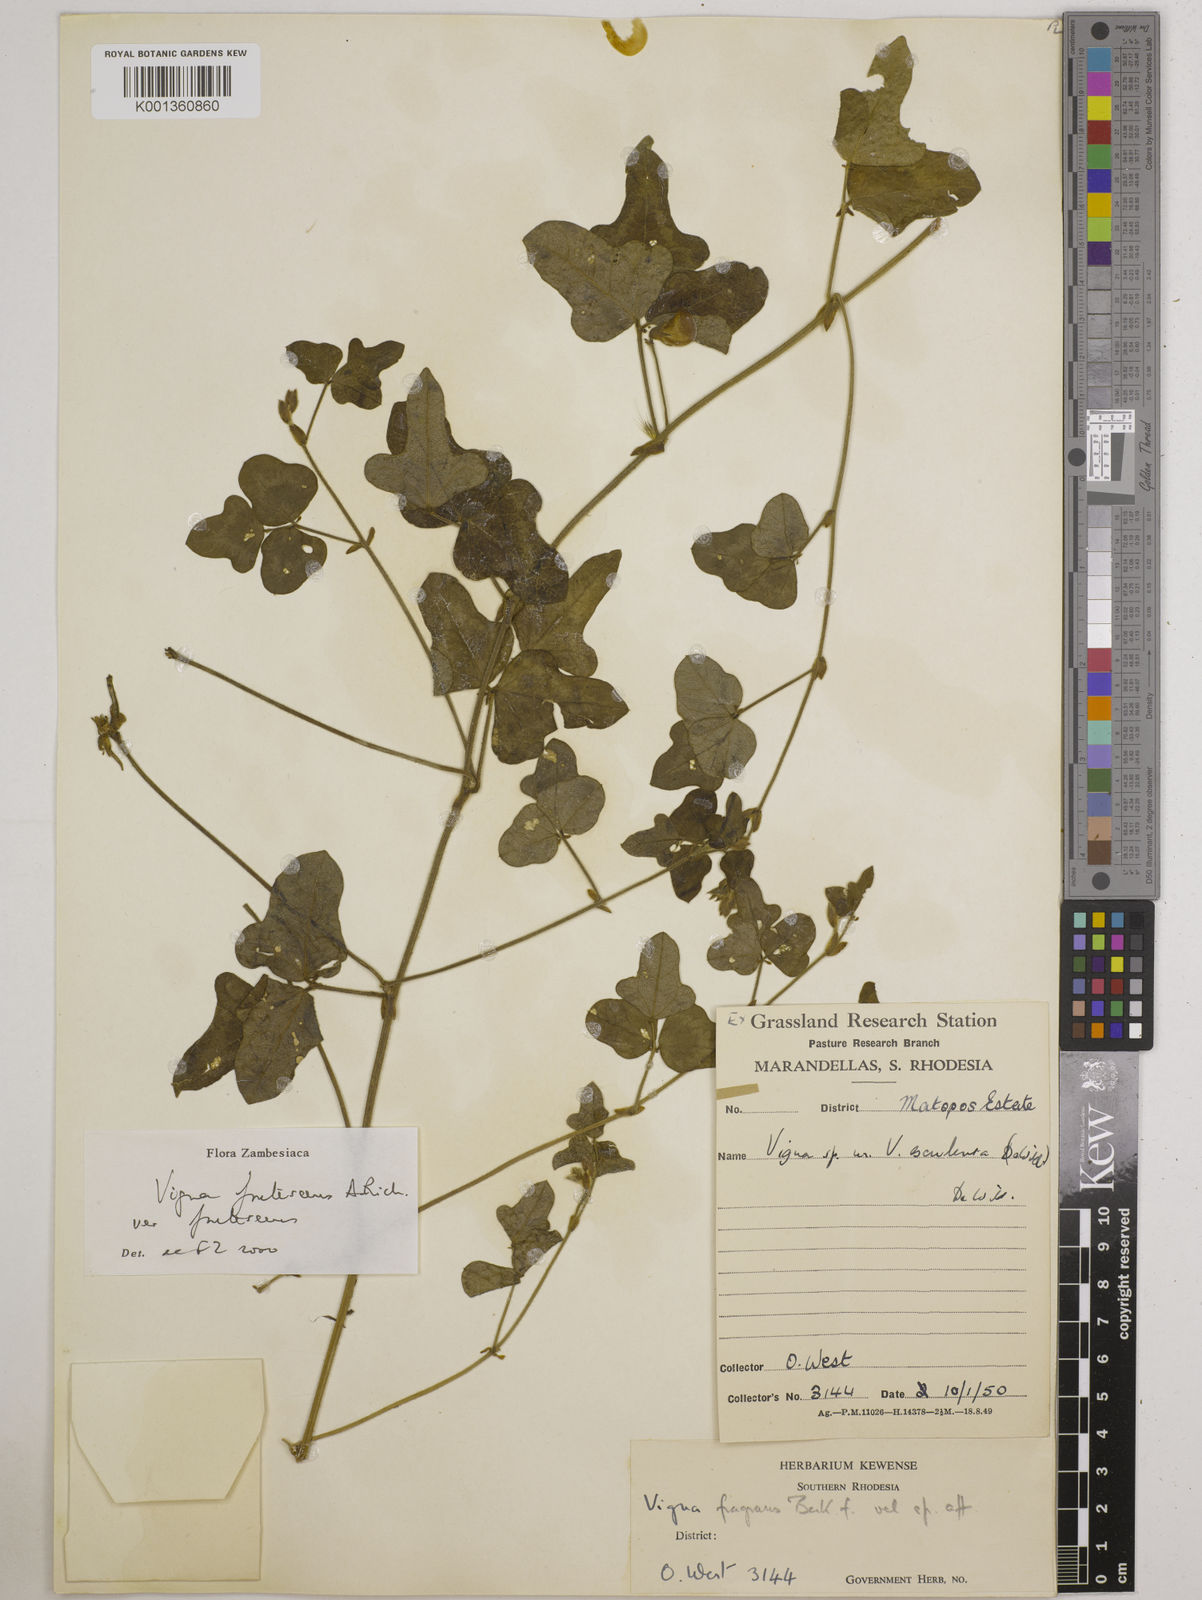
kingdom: Plantae
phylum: Tracheophyta
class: Magnoliopsida
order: Fabales
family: Fabaceae
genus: Vigna
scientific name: Vigna
